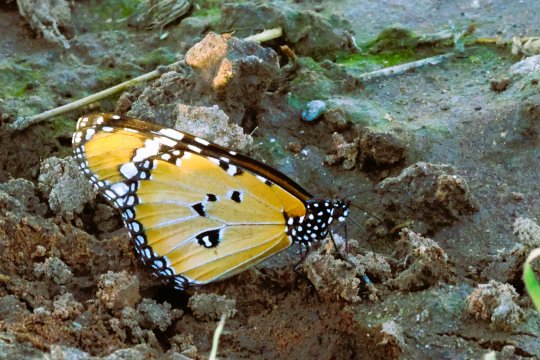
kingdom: Animalia
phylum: Arthropoda
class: Insecta
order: Lepidoptera
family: Nymphalidae
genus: Danaus
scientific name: Danaus chrysippus
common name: African Monarch
